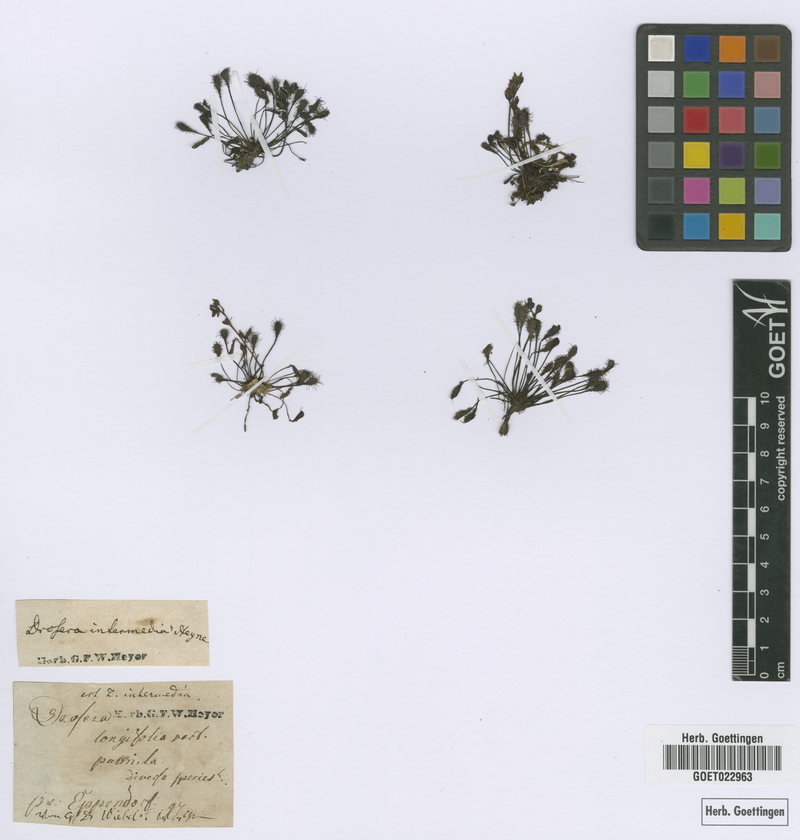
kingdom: Plantae
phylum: Tracheophyta
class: Magnoliopsida
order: Caryophyllales
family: Droseraceae
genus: Drosera
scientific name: Drosera intermedia
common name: Oblong-leaved sundew
